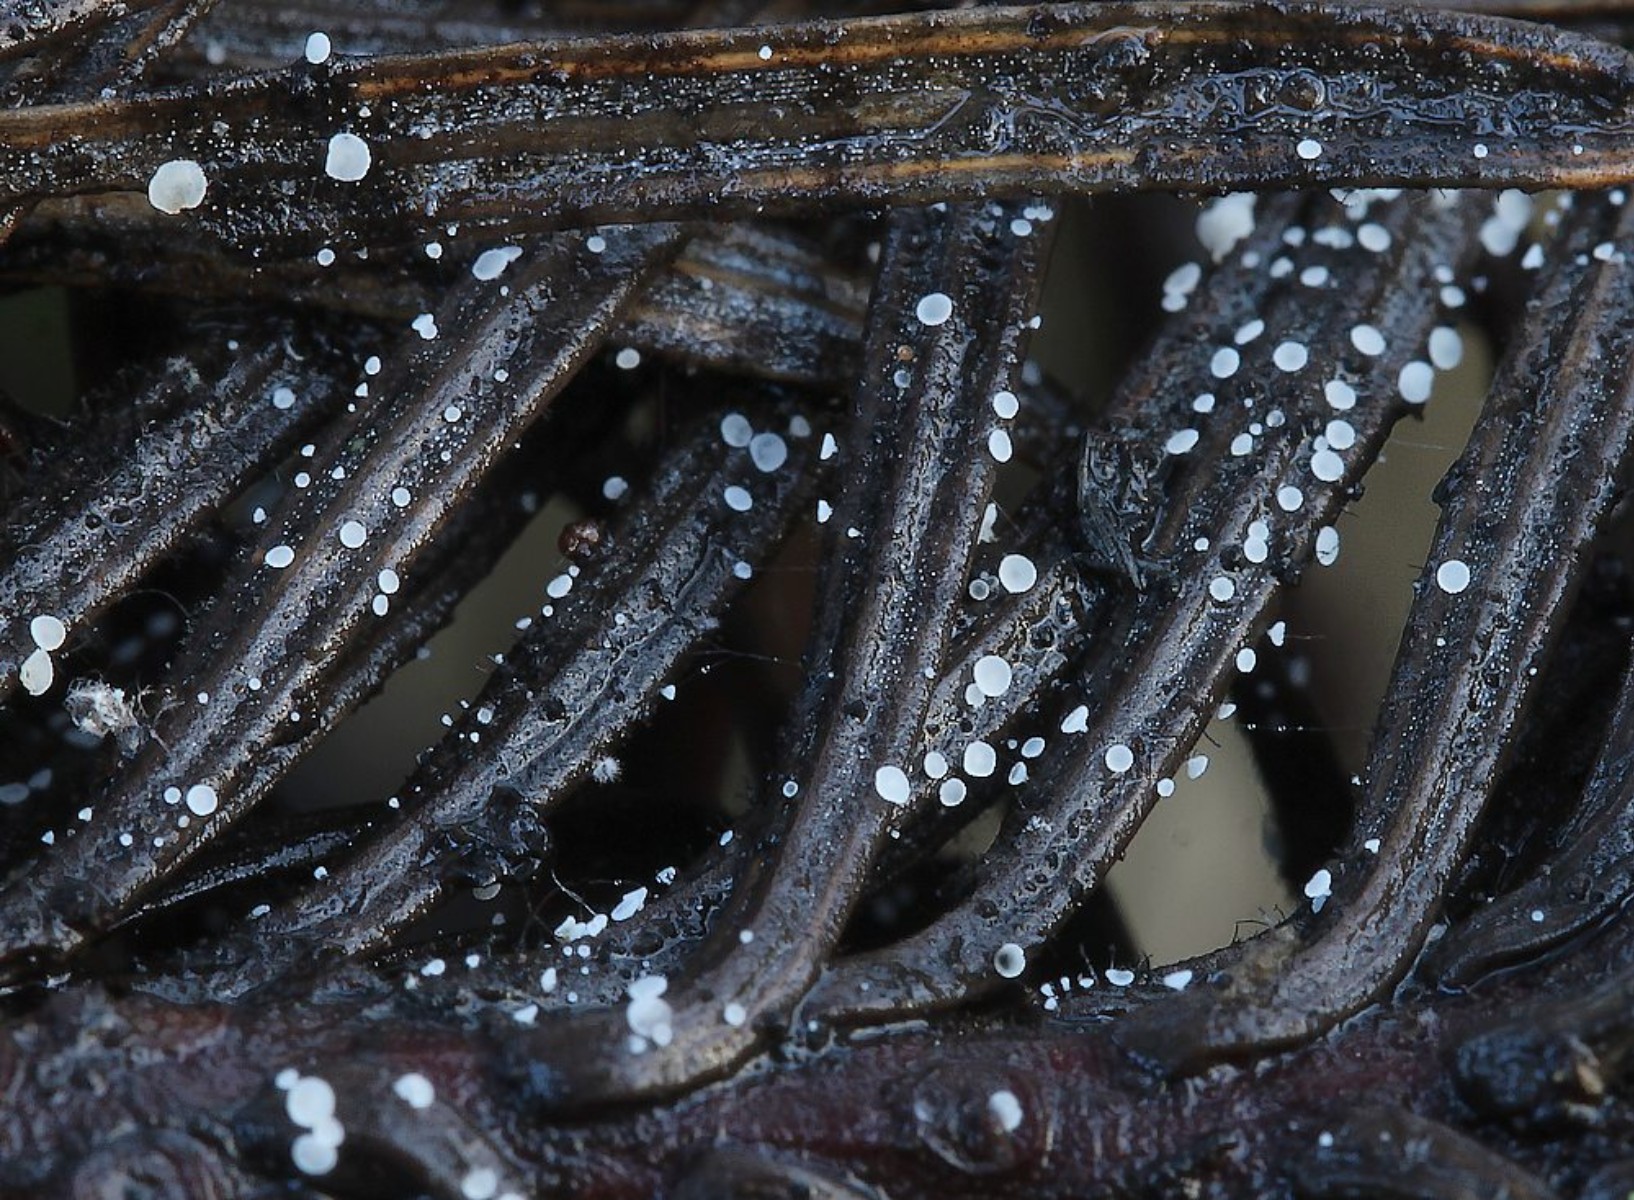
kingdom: Fungi
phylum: Ascomycota
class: Leotiomycetes
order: Helotiales
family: Hyaloscyphaceae
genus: Cistella
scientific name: Cistella acuum
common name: nåle-sirskive
